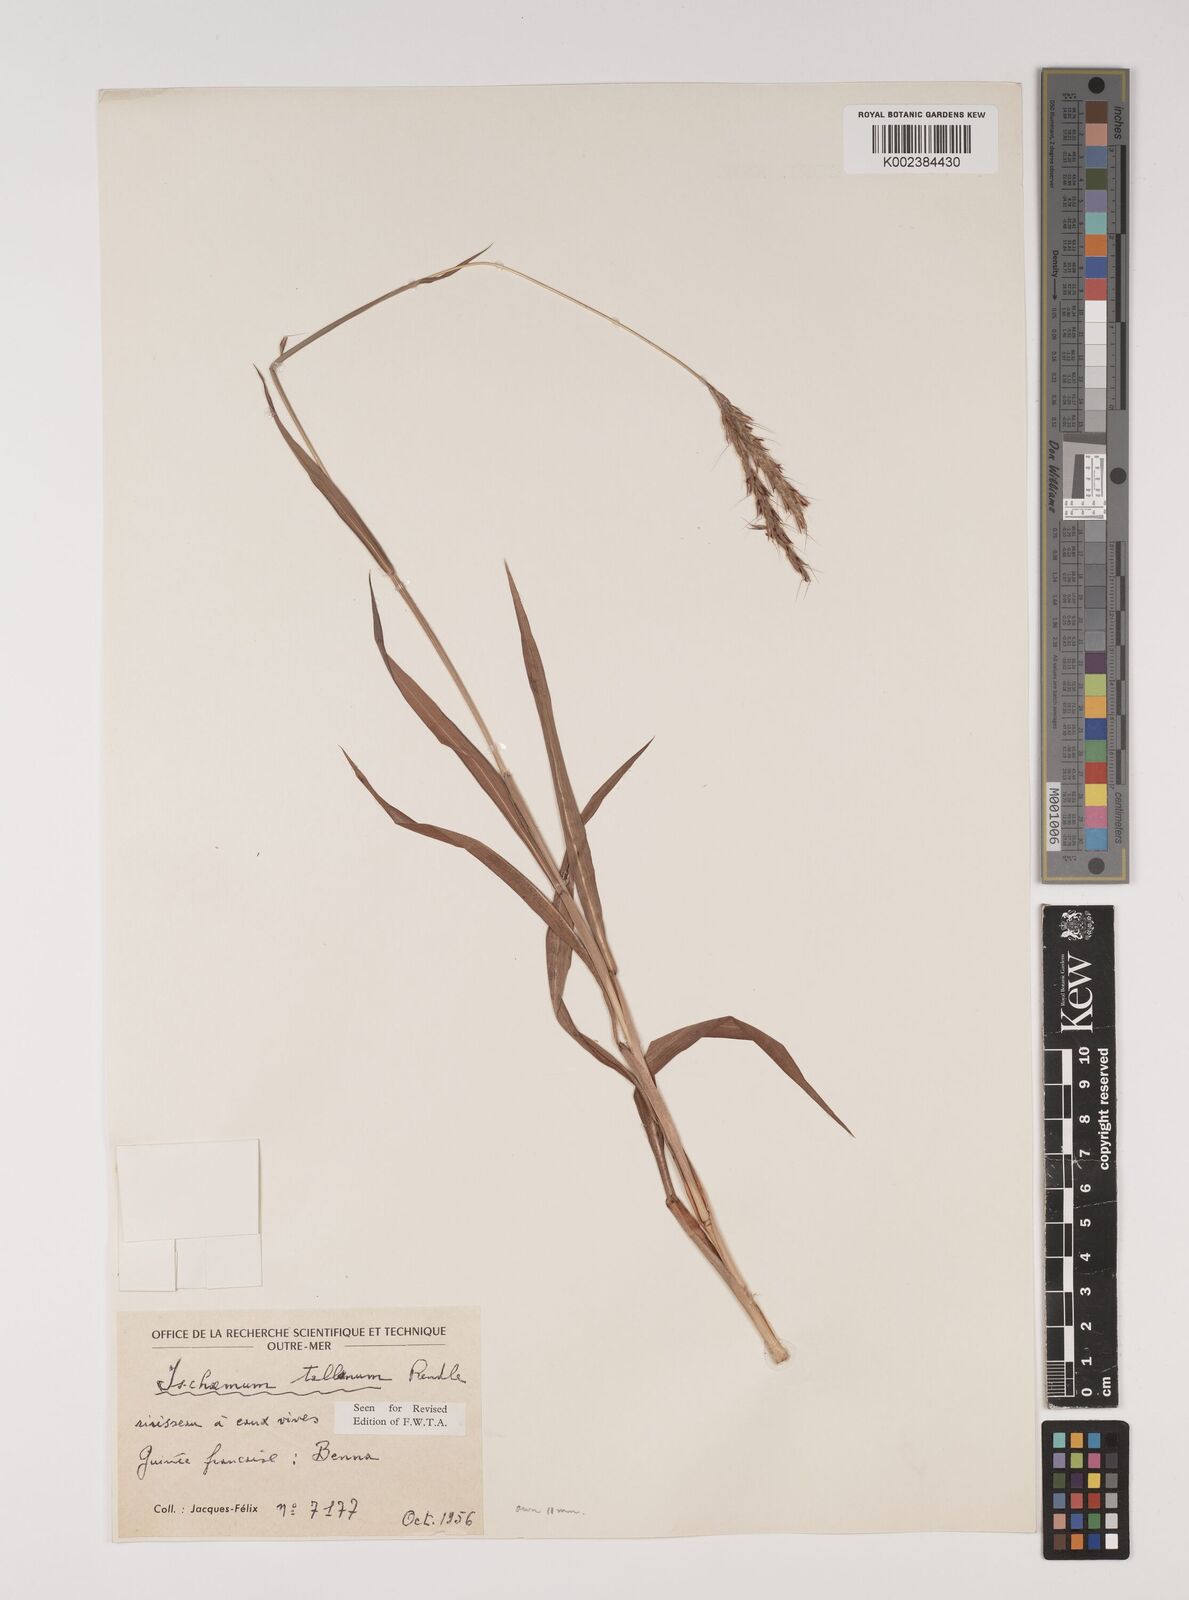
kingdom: Plantae
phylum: Tracheophyta
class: Liliopsida
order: Poales
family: Poaceae
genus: Ischaemum
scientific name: Ischaemum polystachyum
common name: Paddle grass
